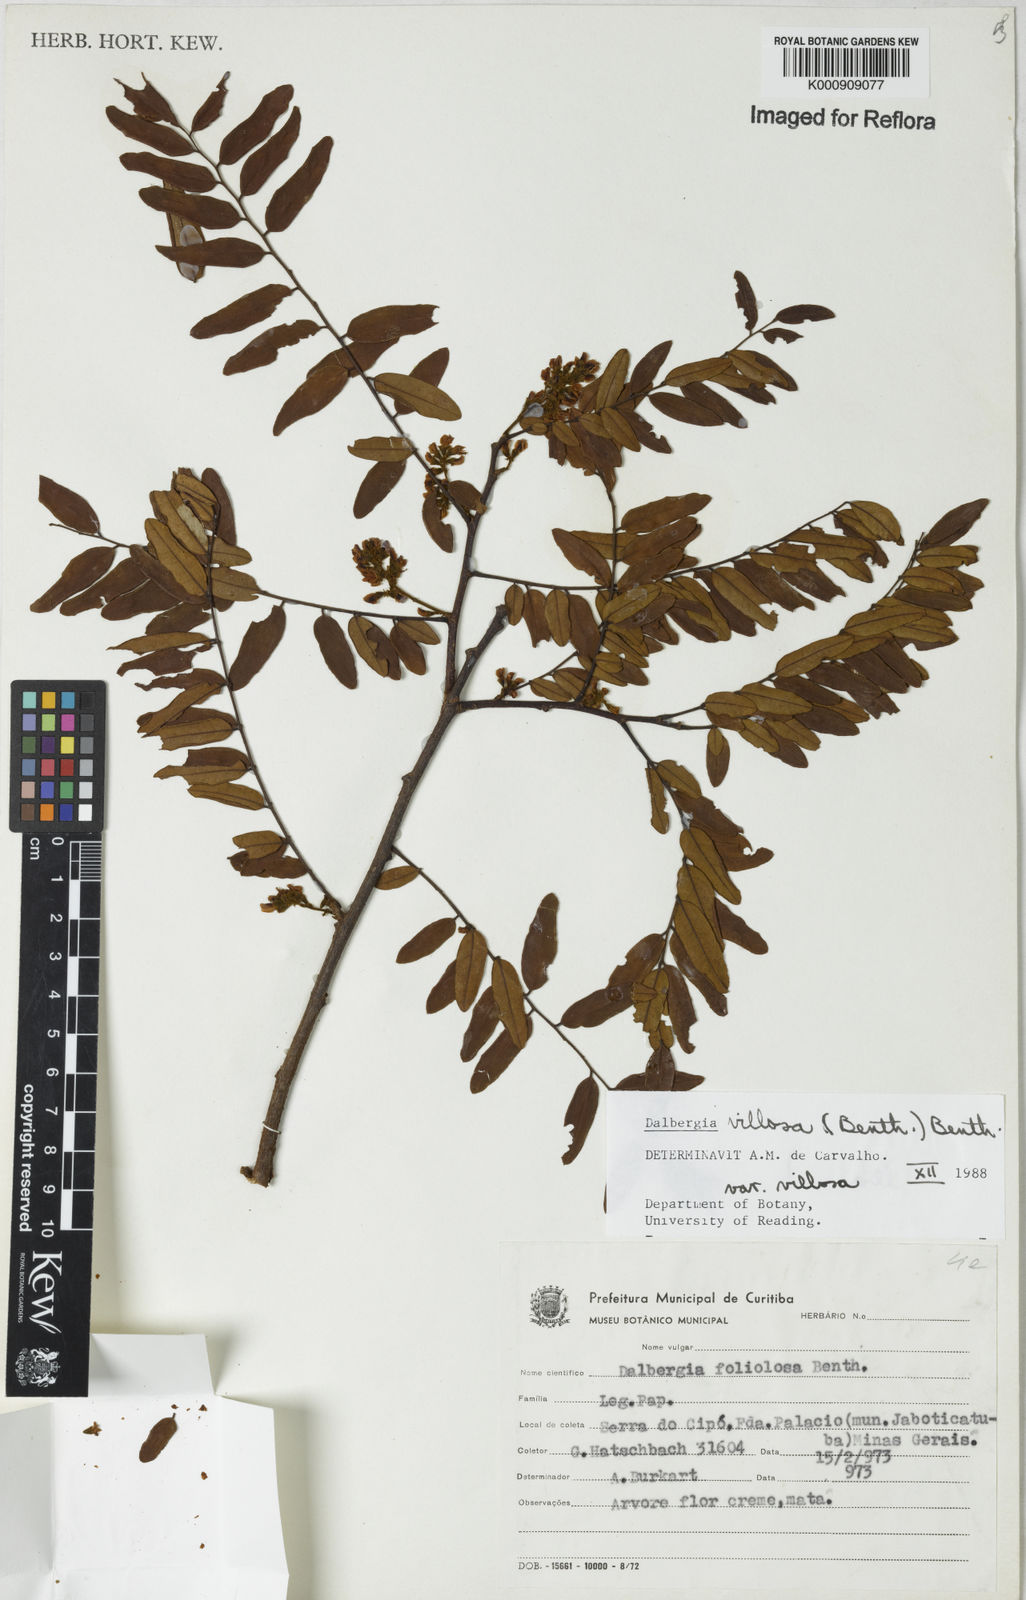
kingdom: Plantae
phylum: Tracheophyta
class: Magnoliopsida
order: Fabales
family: Fabaceae
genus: Dalbergia
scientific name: Dalbergia villosa
